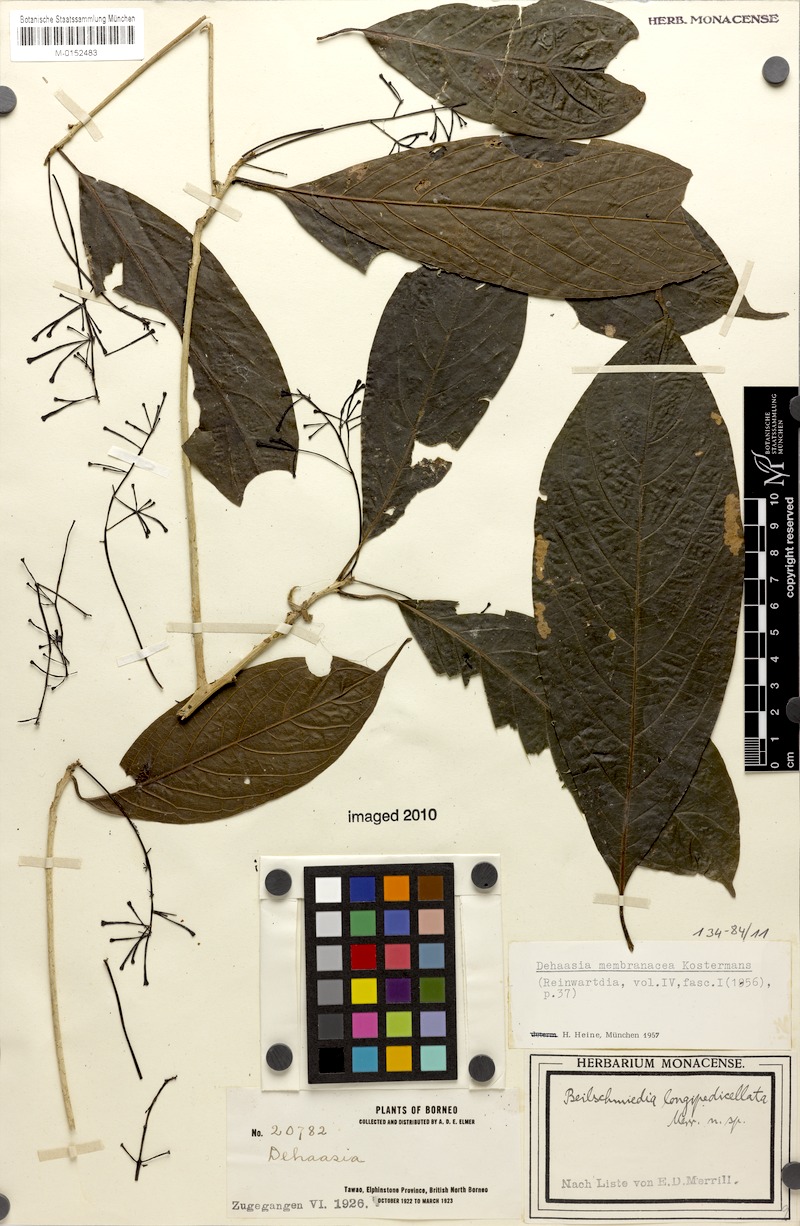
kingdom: Plantae
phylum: Tracheophyta
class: Magnoliopsida
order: Laurales
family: Lauraceae
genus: Dehaasia
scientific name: Dehaasia membranacea
